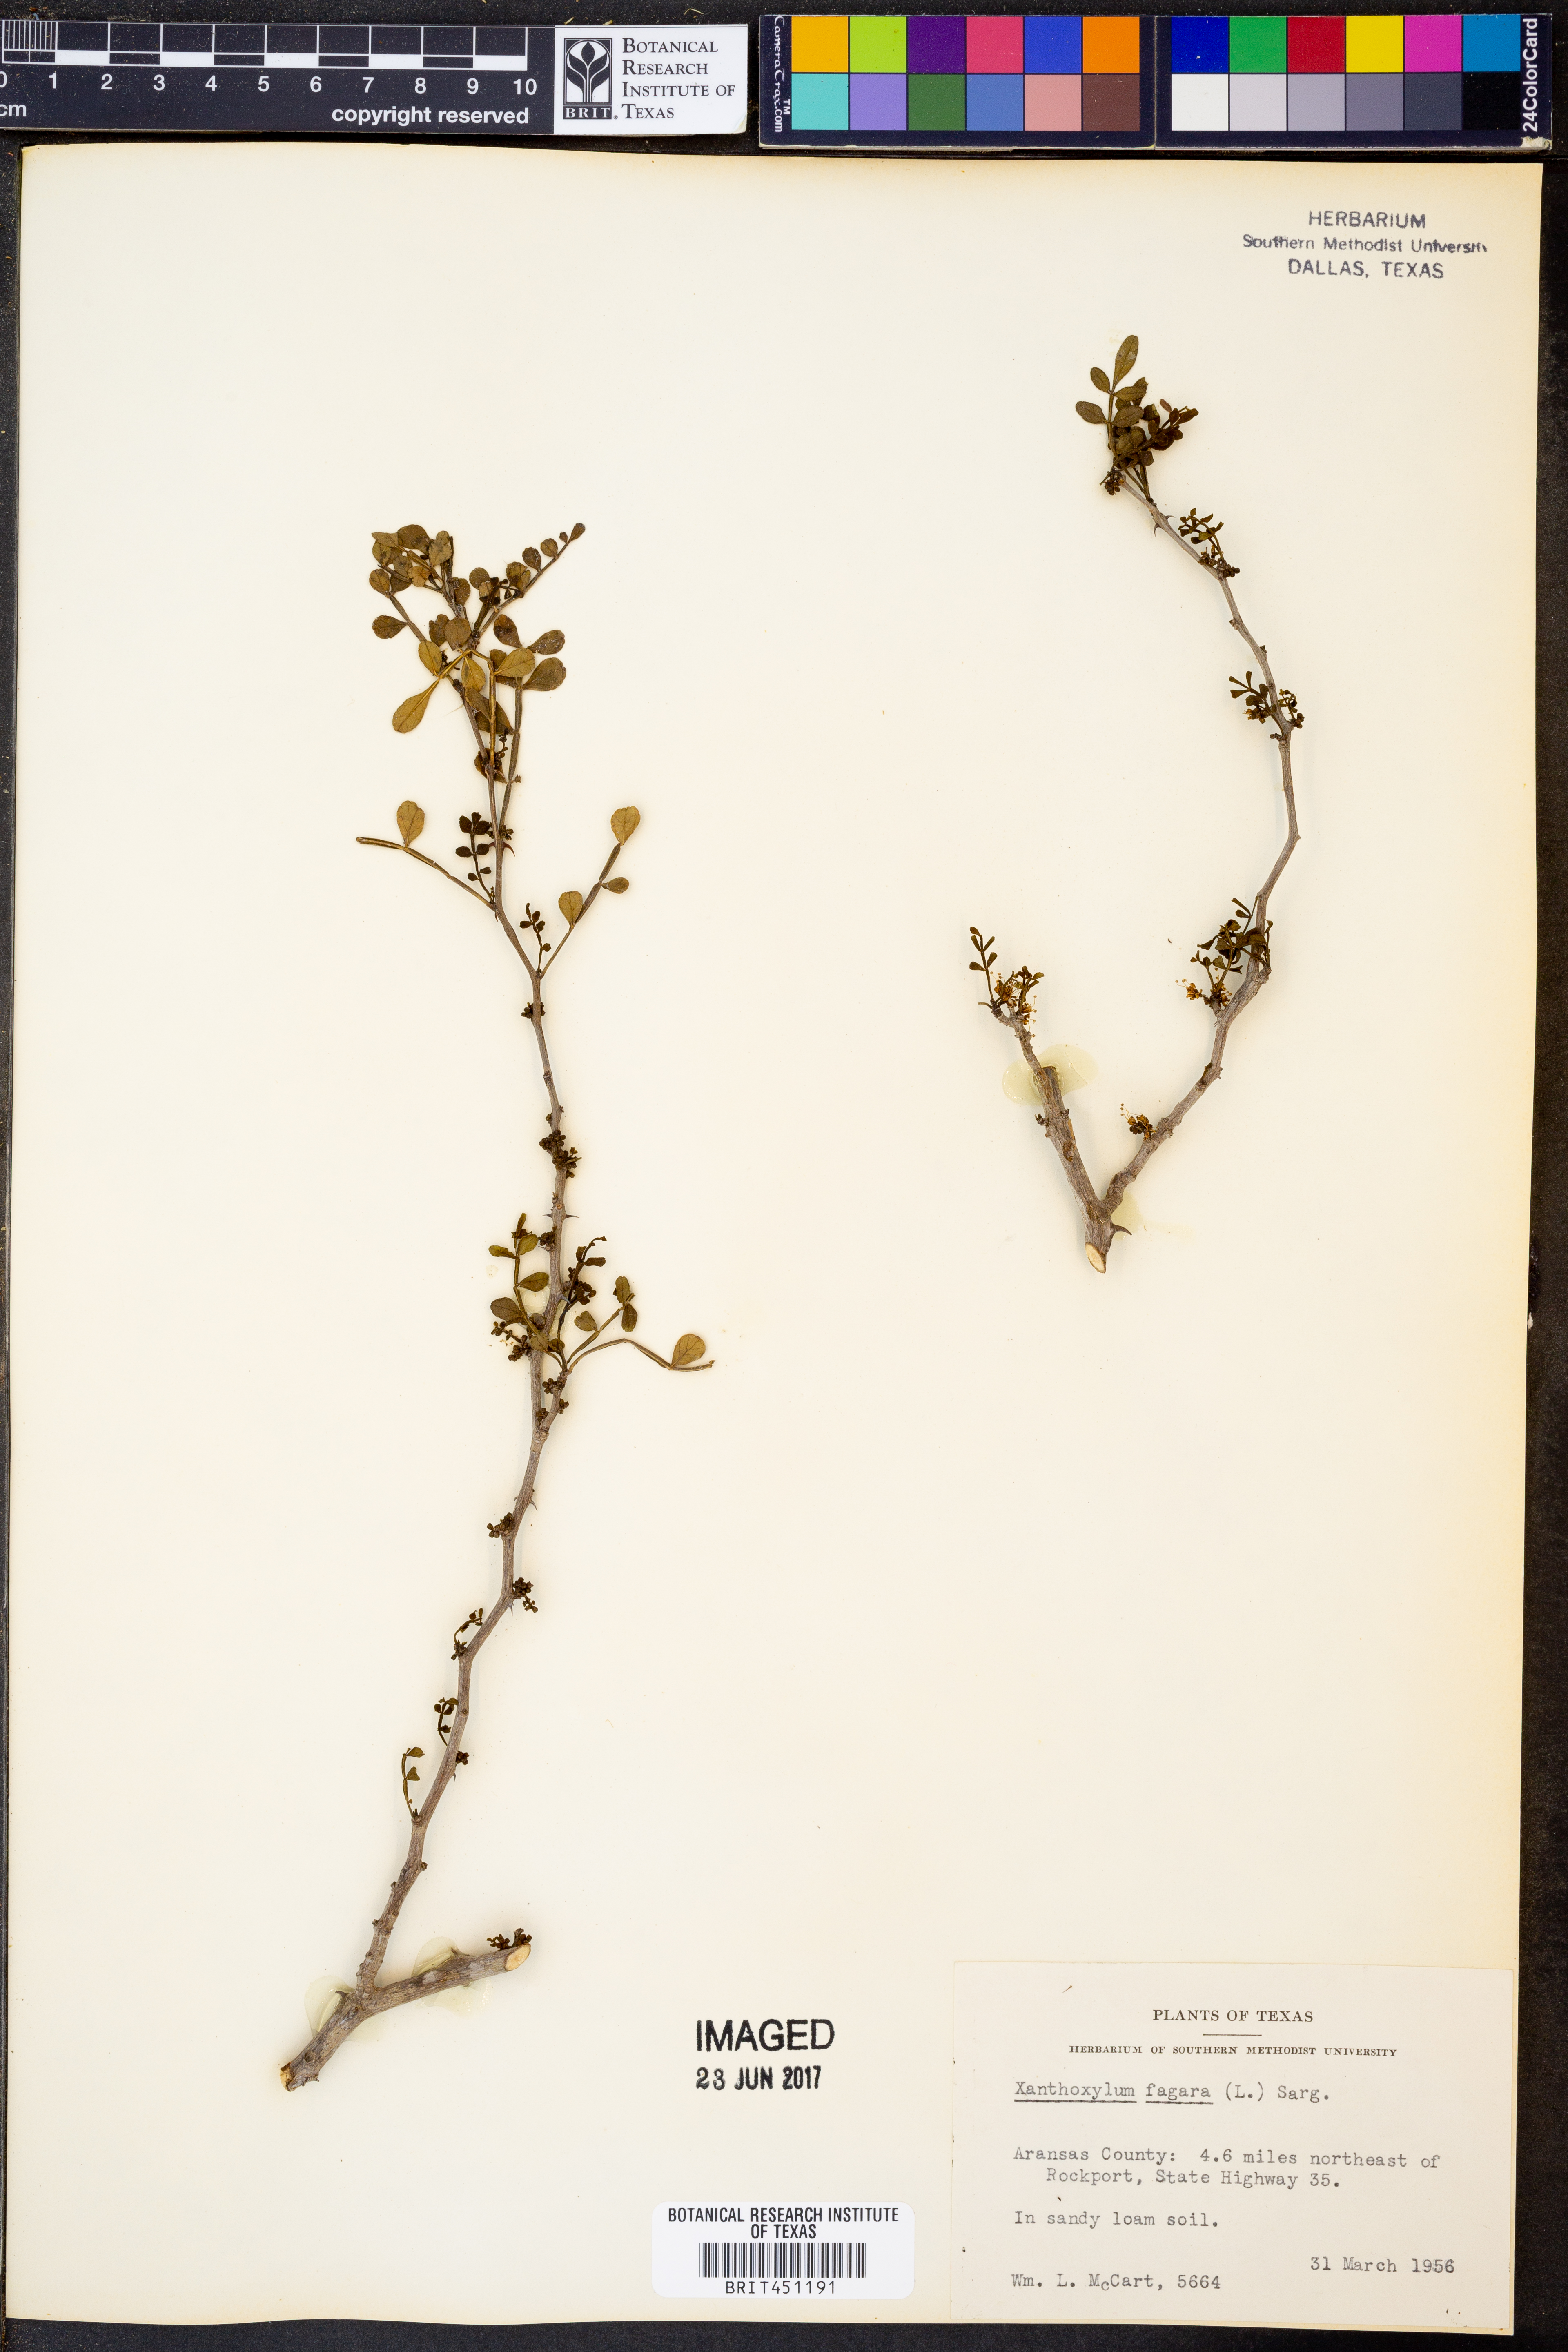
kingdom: Plantae
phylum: Tracheophyta
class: Magnoliopsida
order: Sapindales
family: Rutaceae
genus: Zanthoxylum
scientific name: Zanthoxylum fagara
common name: Lime prickly-ash
